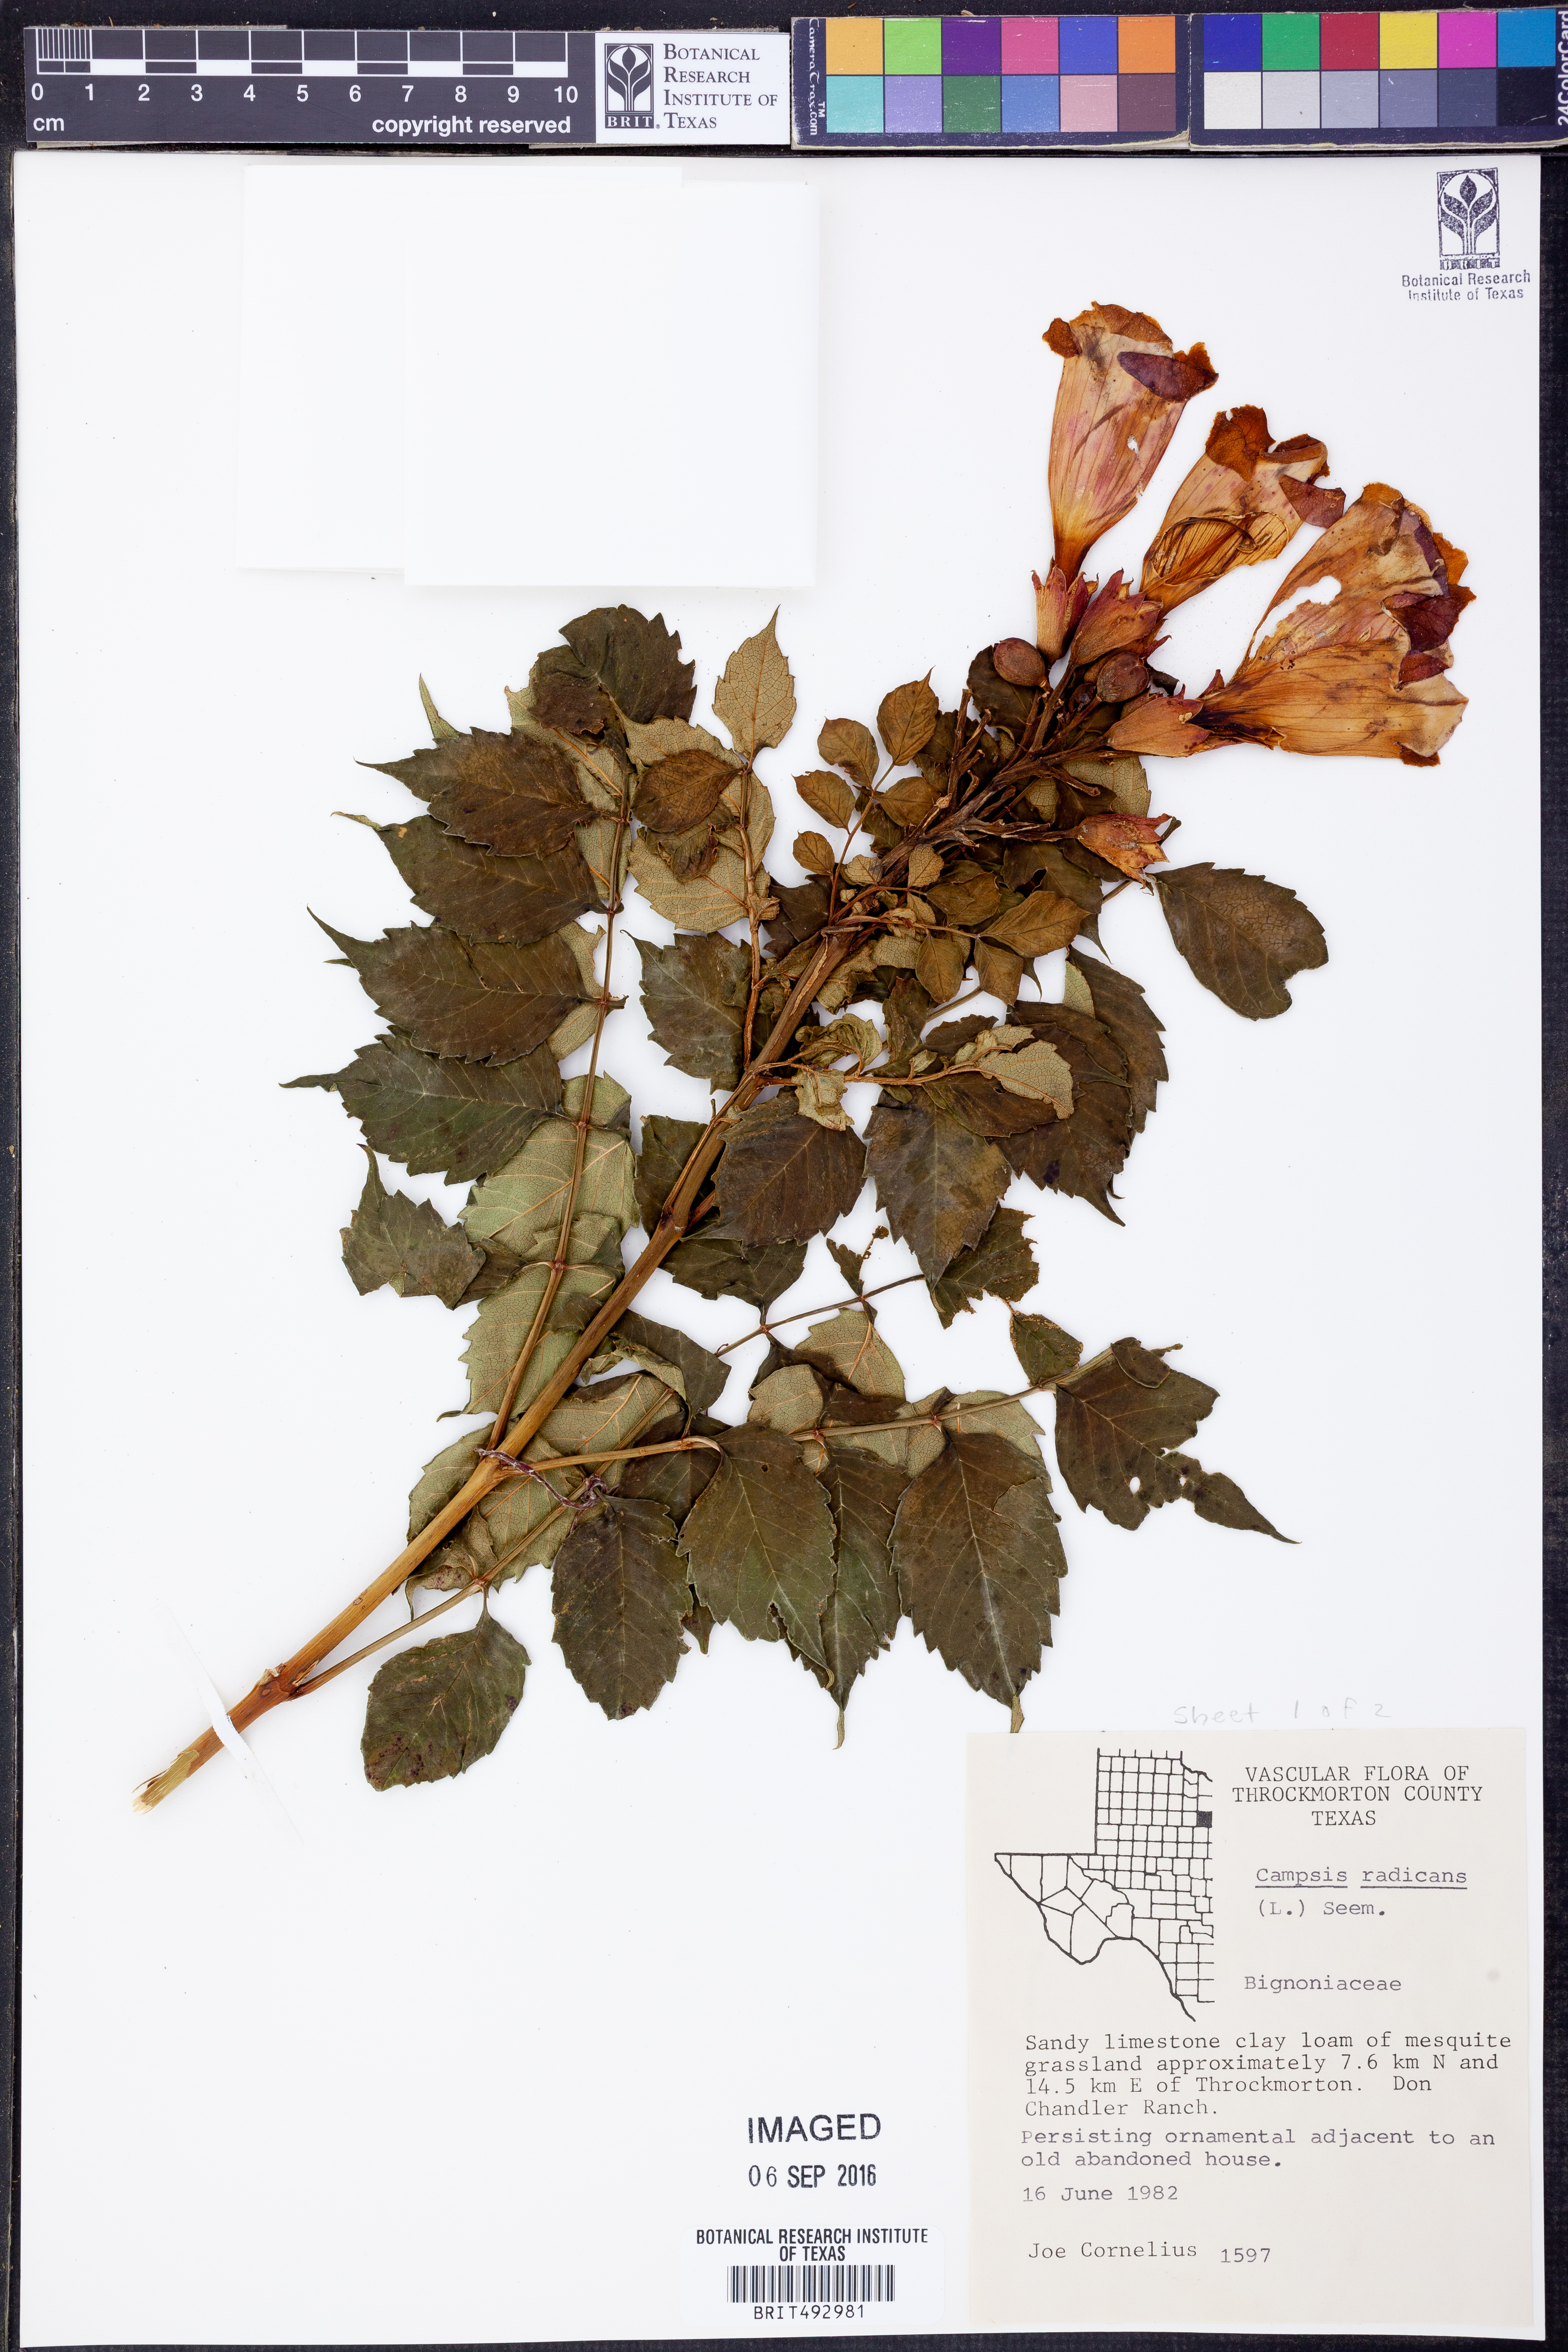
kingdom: Plantae
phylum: Tracheophyta
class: Magnoliopsida
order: Lamiales
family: Bignoniaceae
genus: Campsis
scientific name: Campsis radicans
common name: Trumpet-creeper
